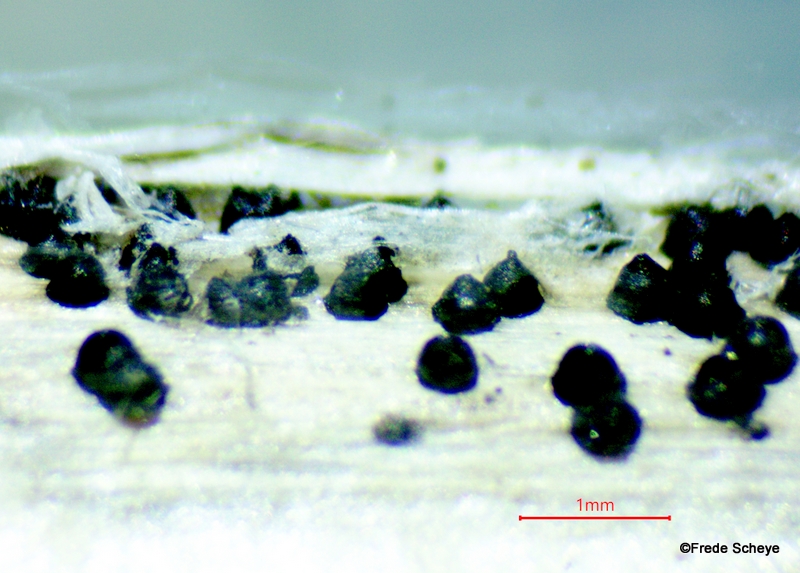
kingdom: Fungi
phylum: Ascomycota
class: Dothideomycetes
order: Pleosporales
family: Leptosphaeriaceae
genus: Leptosphaeria
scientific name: Leptosphaeria acuta
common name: spids kulkegle
